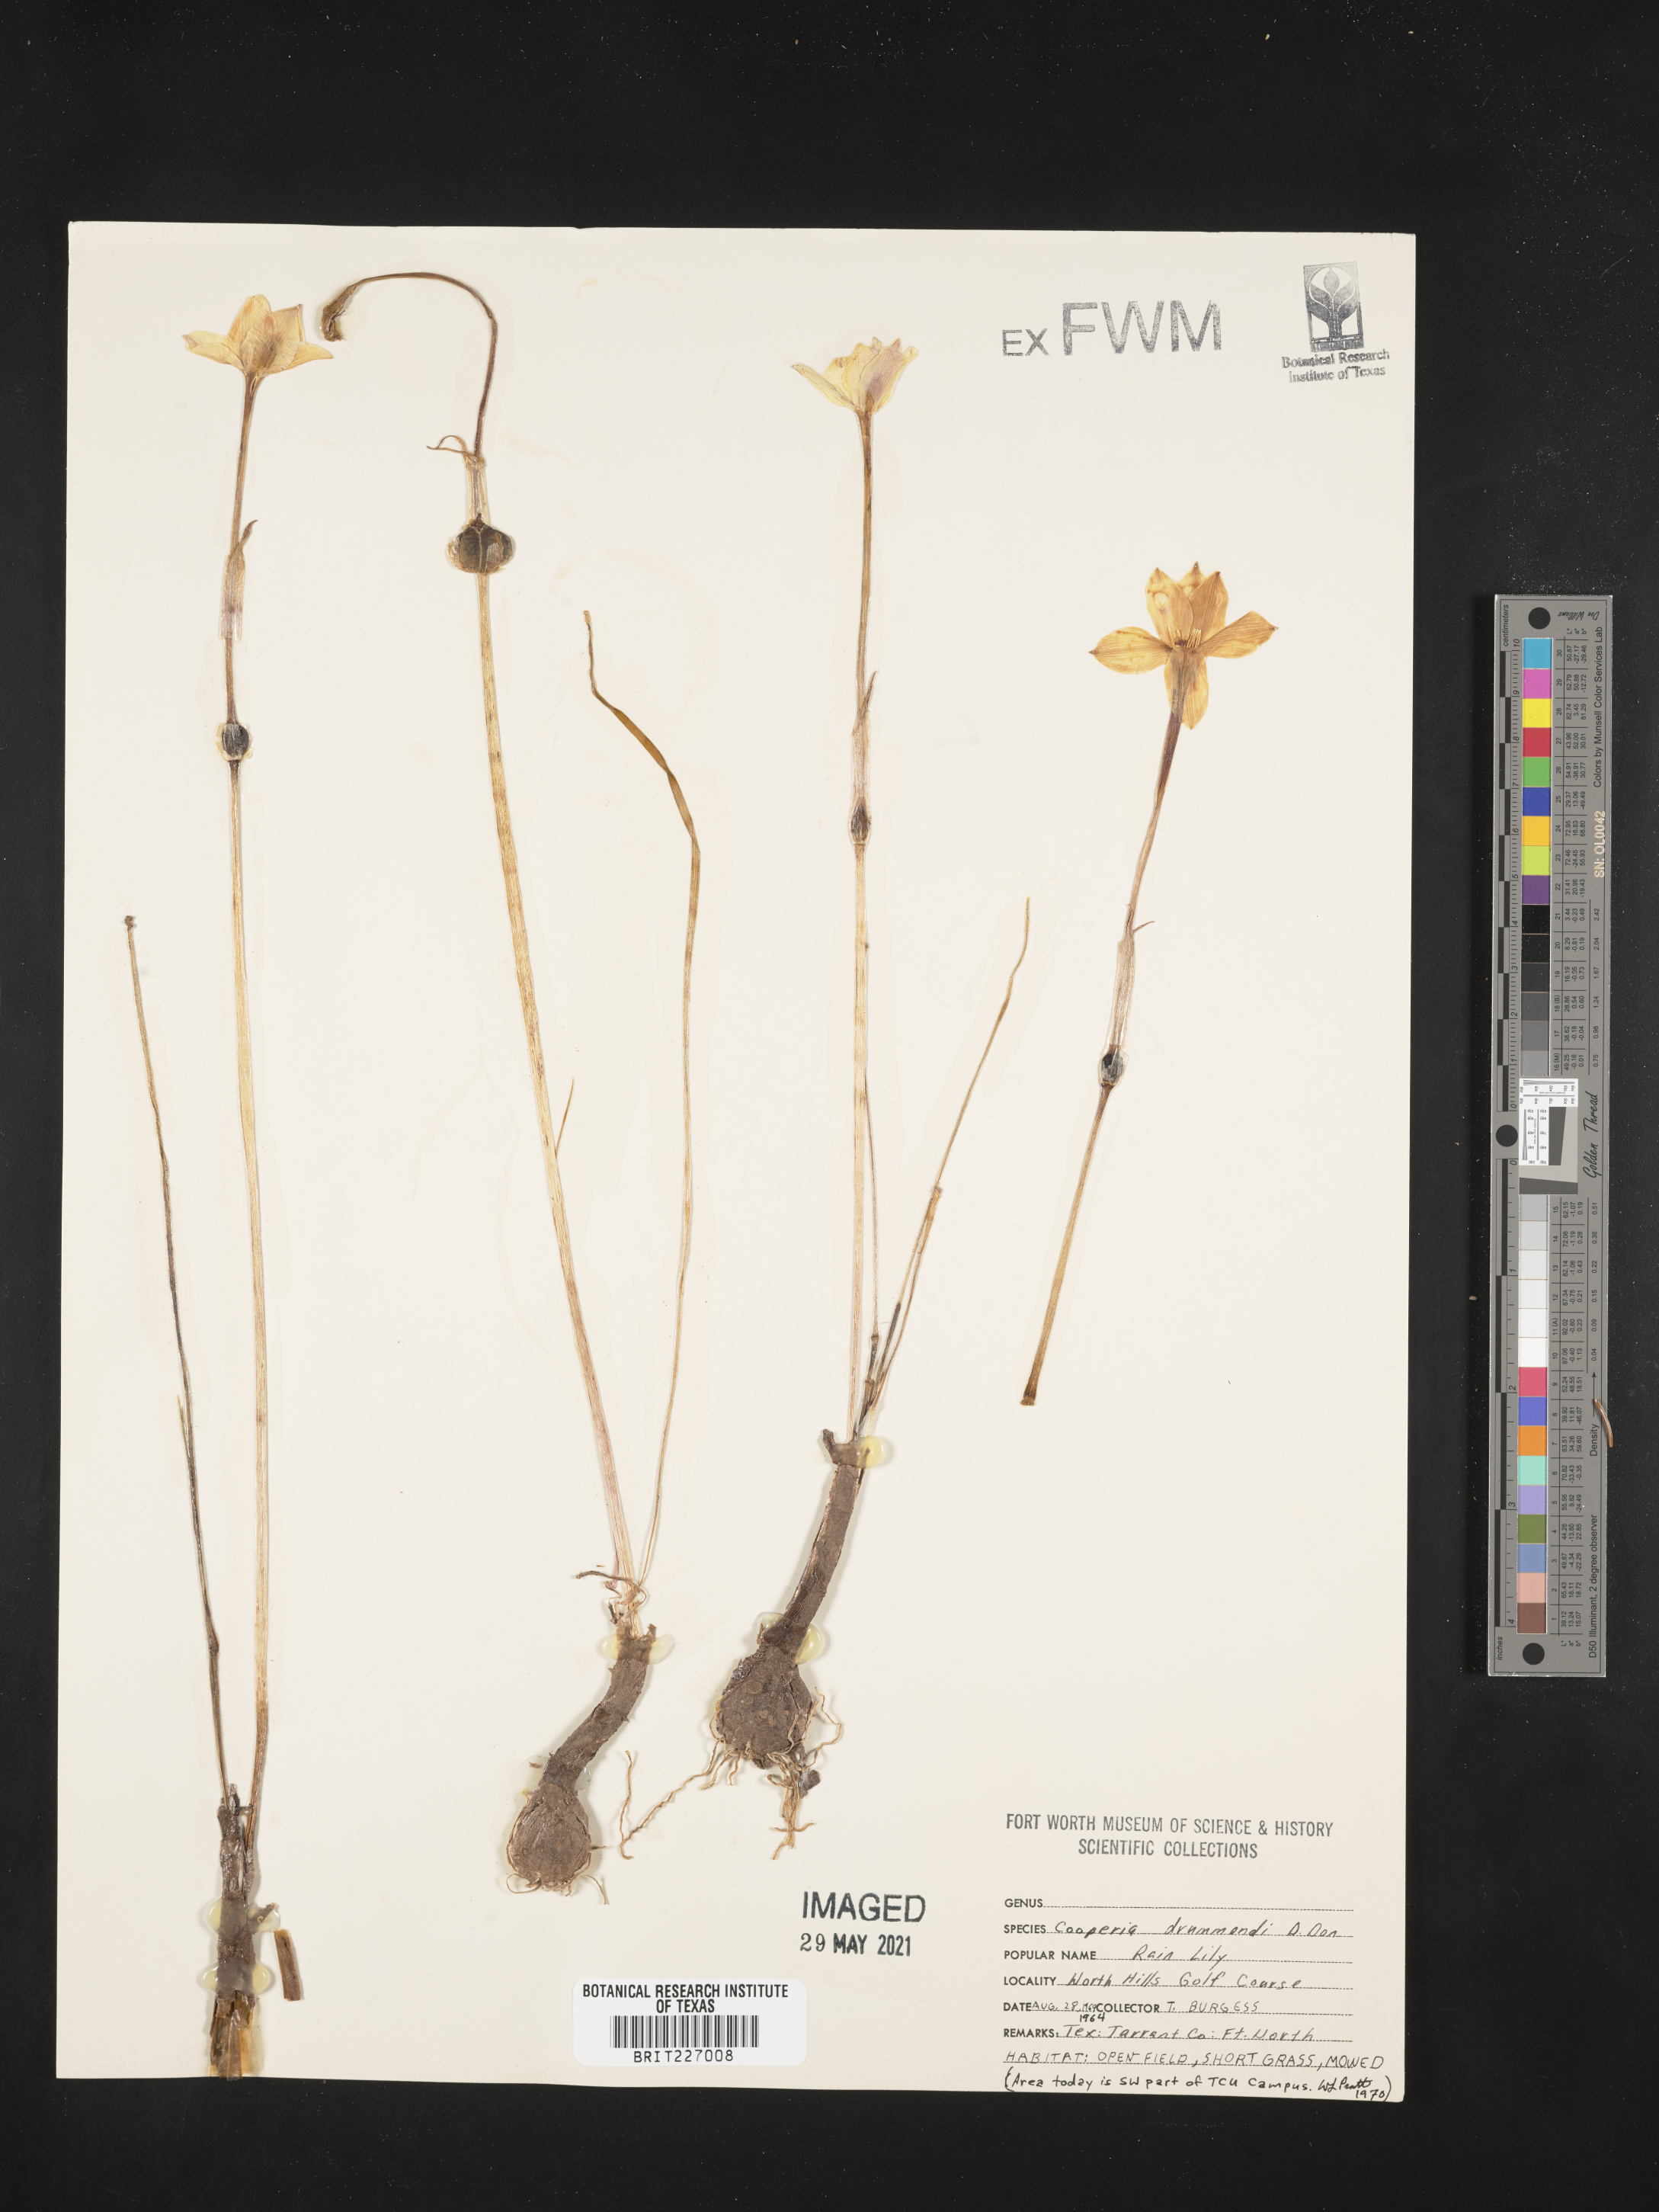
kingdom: Plantae
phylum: Tracheophyta
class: Liliopsida
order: Asparagales
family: Amaryllidaceae
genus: Zephyranthes
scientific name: Zephyranthes chlorosolen
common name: Evening rain-lily
